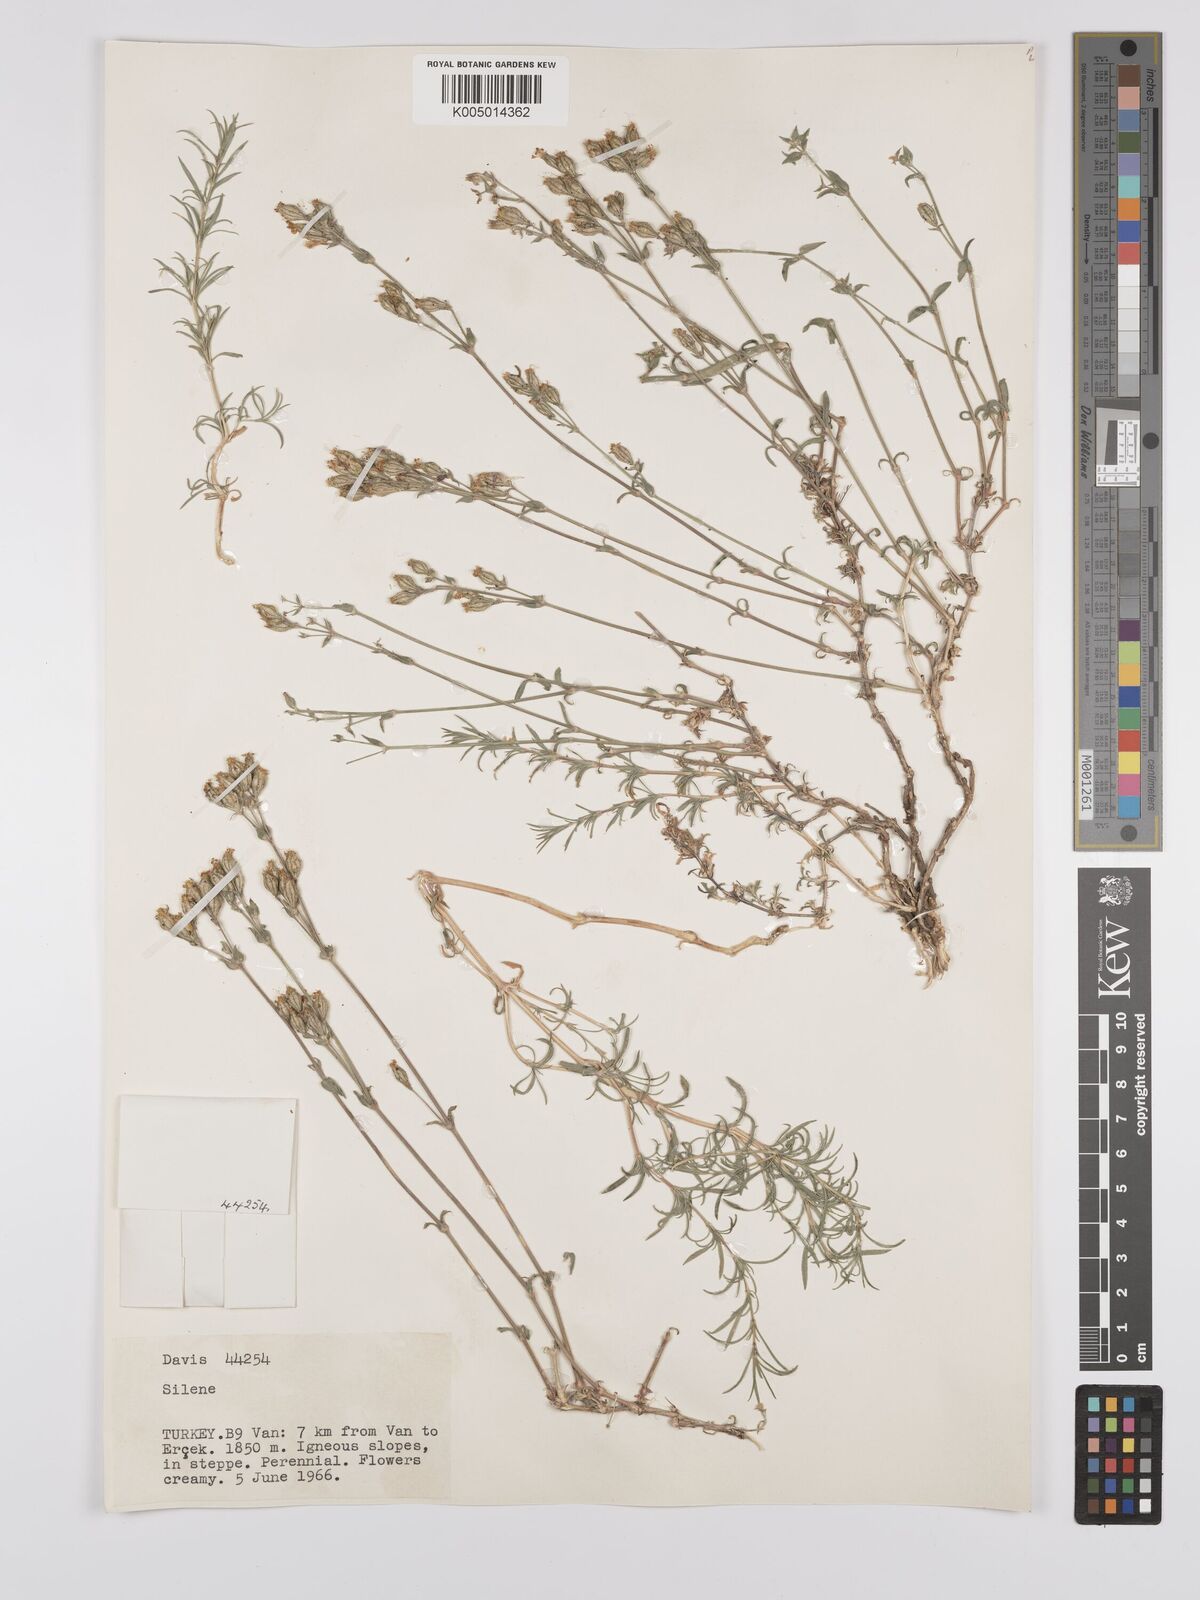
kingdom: Plantae
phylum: Tracheophyta
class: Magnoliopsida
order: Caryophyllales
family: Caryophyllaceae
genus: Silene
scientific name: Silene
